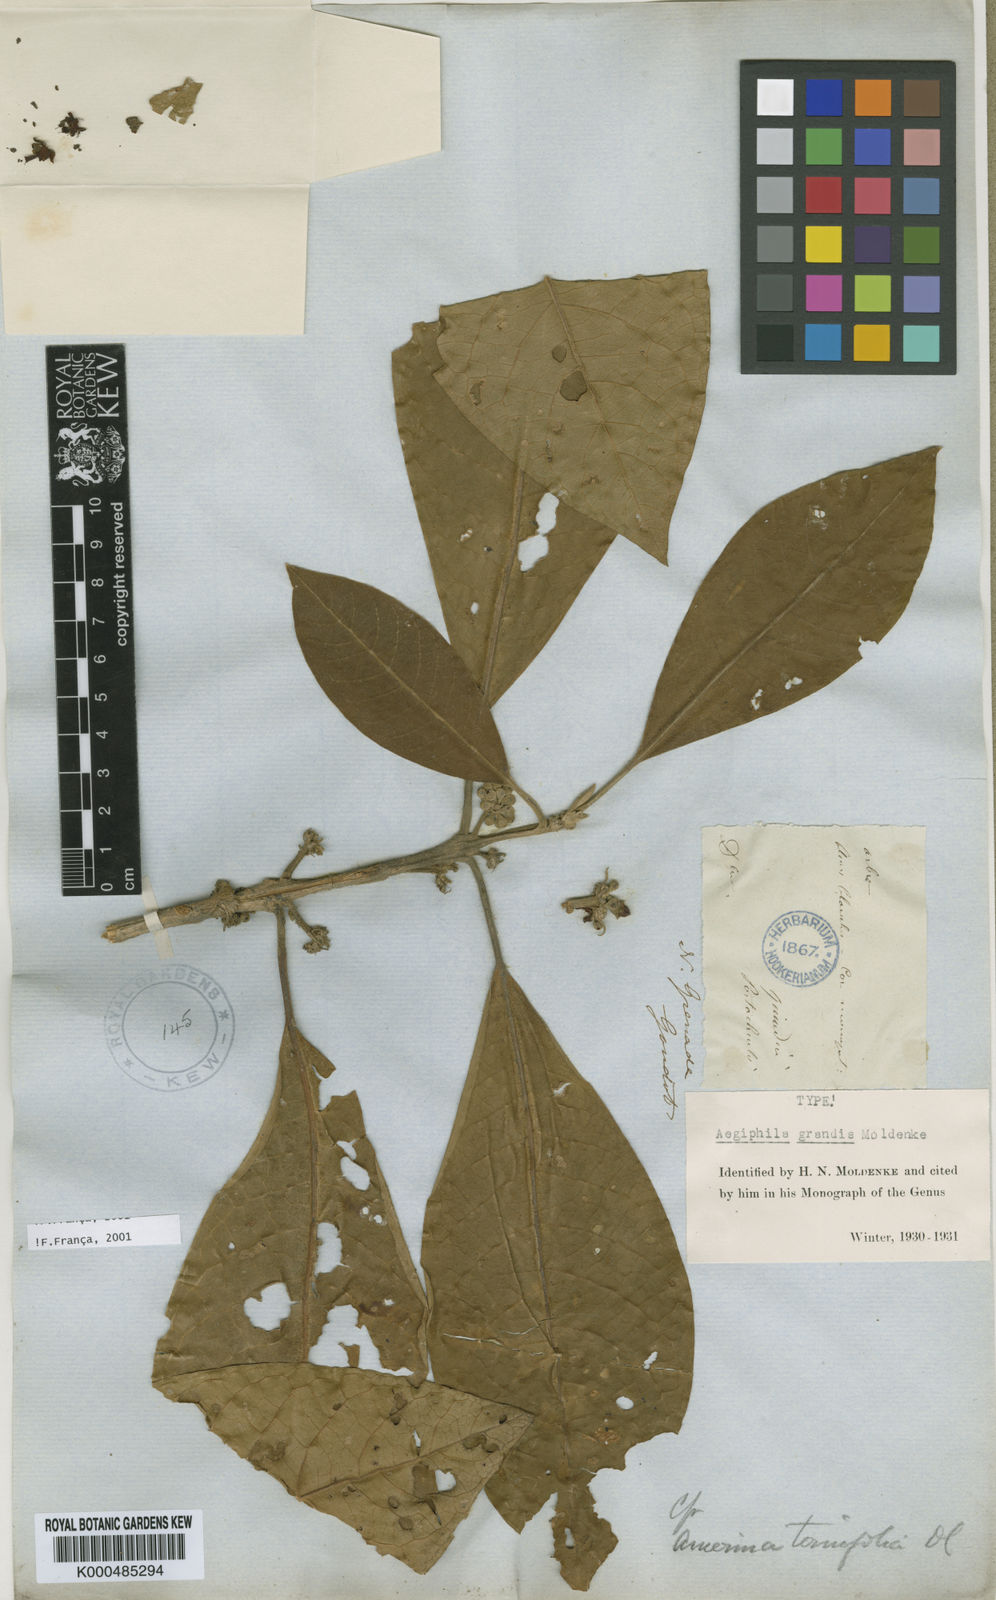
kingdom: Plantae
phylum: Tracheophyta
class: Magnoliopsida
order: Lamiales
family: Lamiaceae
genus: Aegiphila
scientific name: Aegiphila grandis
